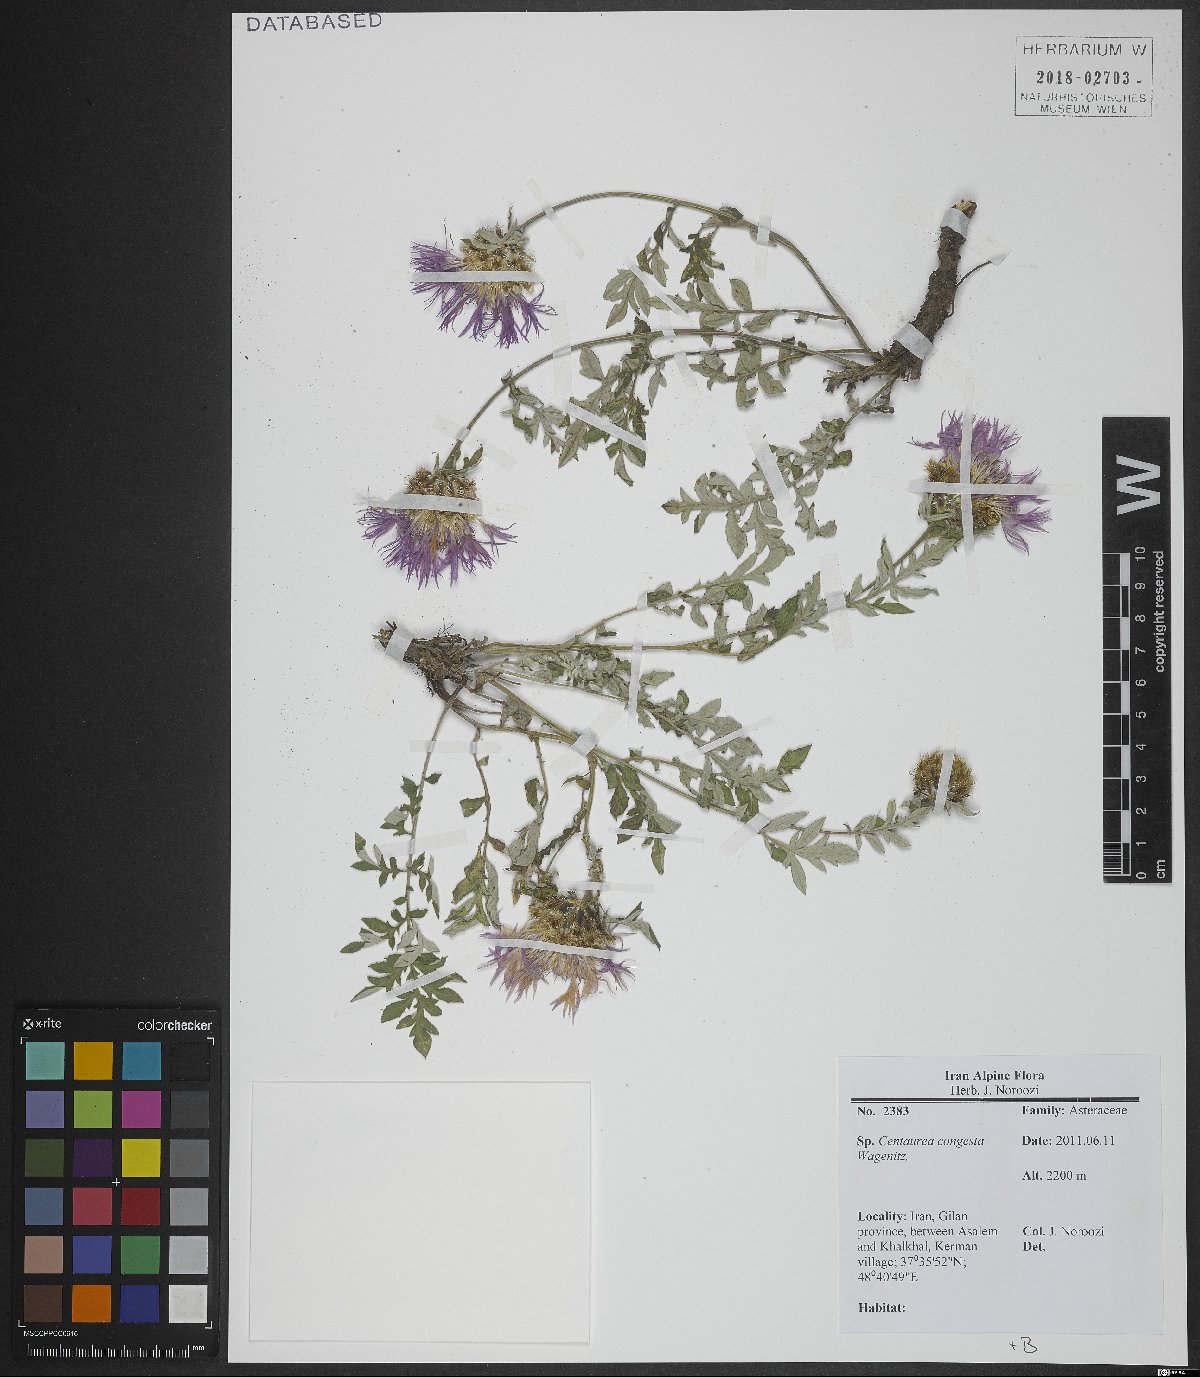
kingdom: Plantae
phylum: Tracheophyta
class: Magnoliopsida
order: Asterales
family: Asteraceae
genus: Psephellus
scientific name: Psephellus congestus
